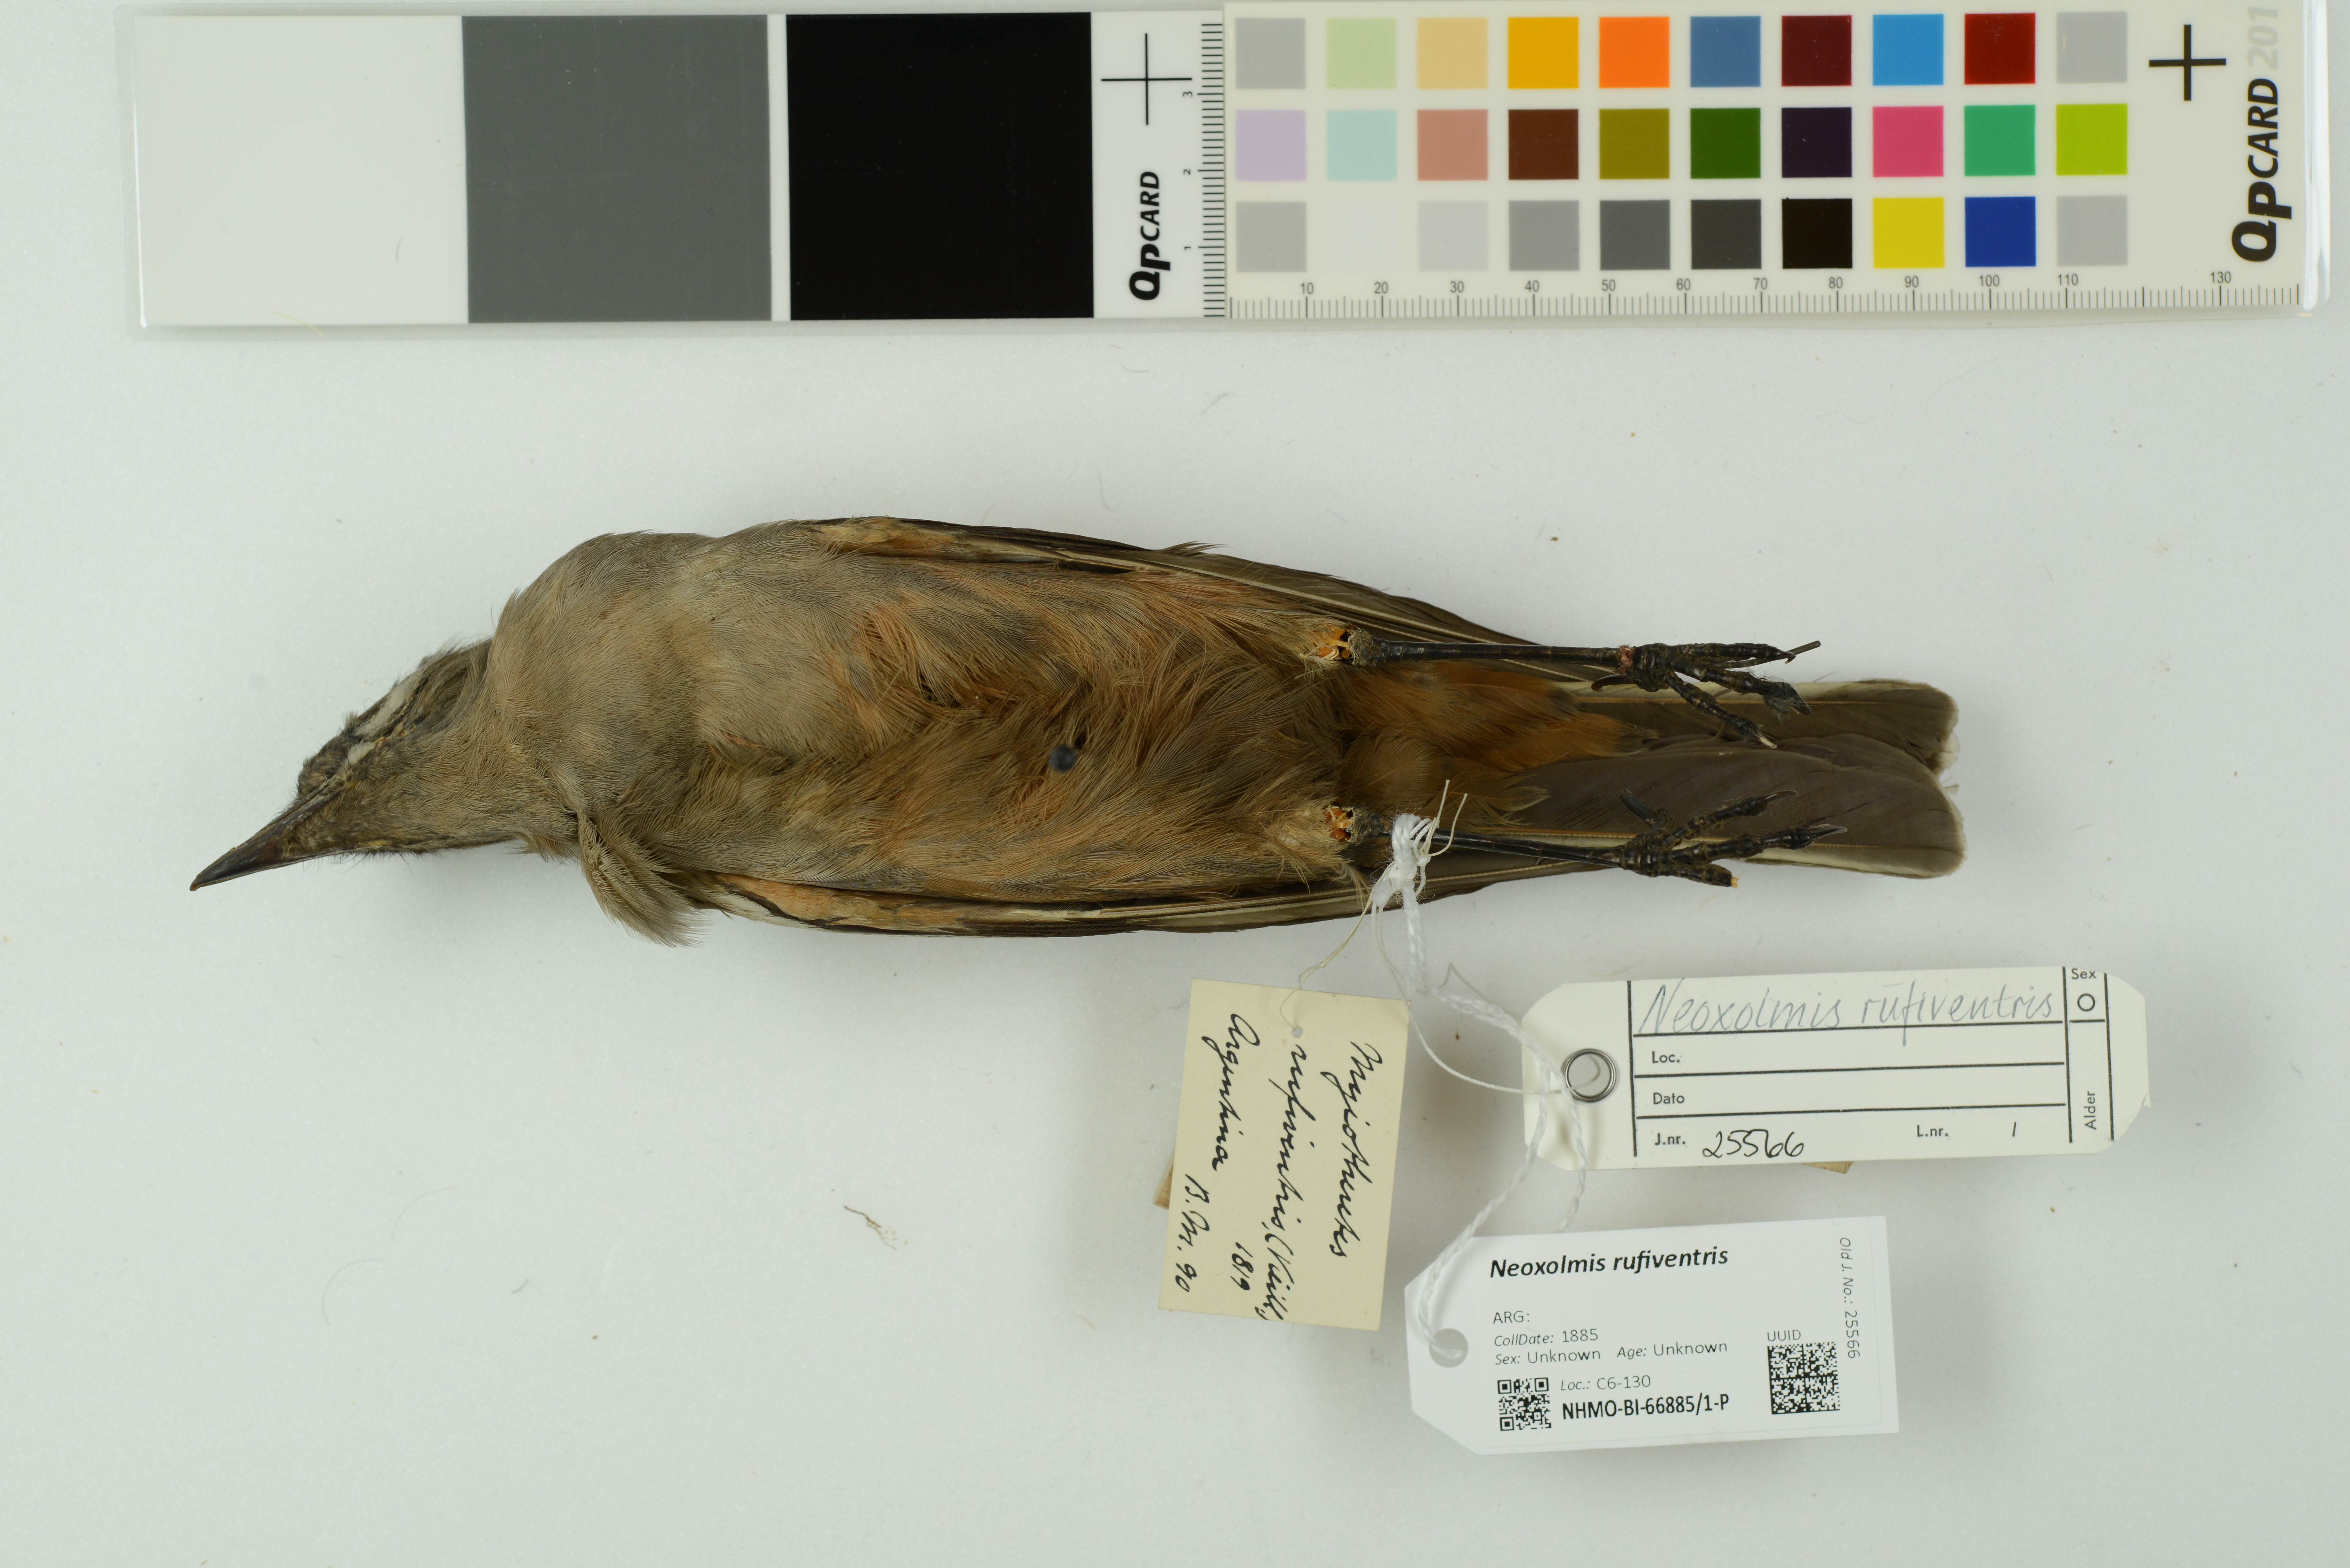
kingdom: Animalia
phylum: Chordata
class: Aves
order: Passeriformes
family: Tyrannidae
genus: Neoxolmis
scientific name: Neoxolmis rufiventris
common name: Chocolate-vented tyrant
